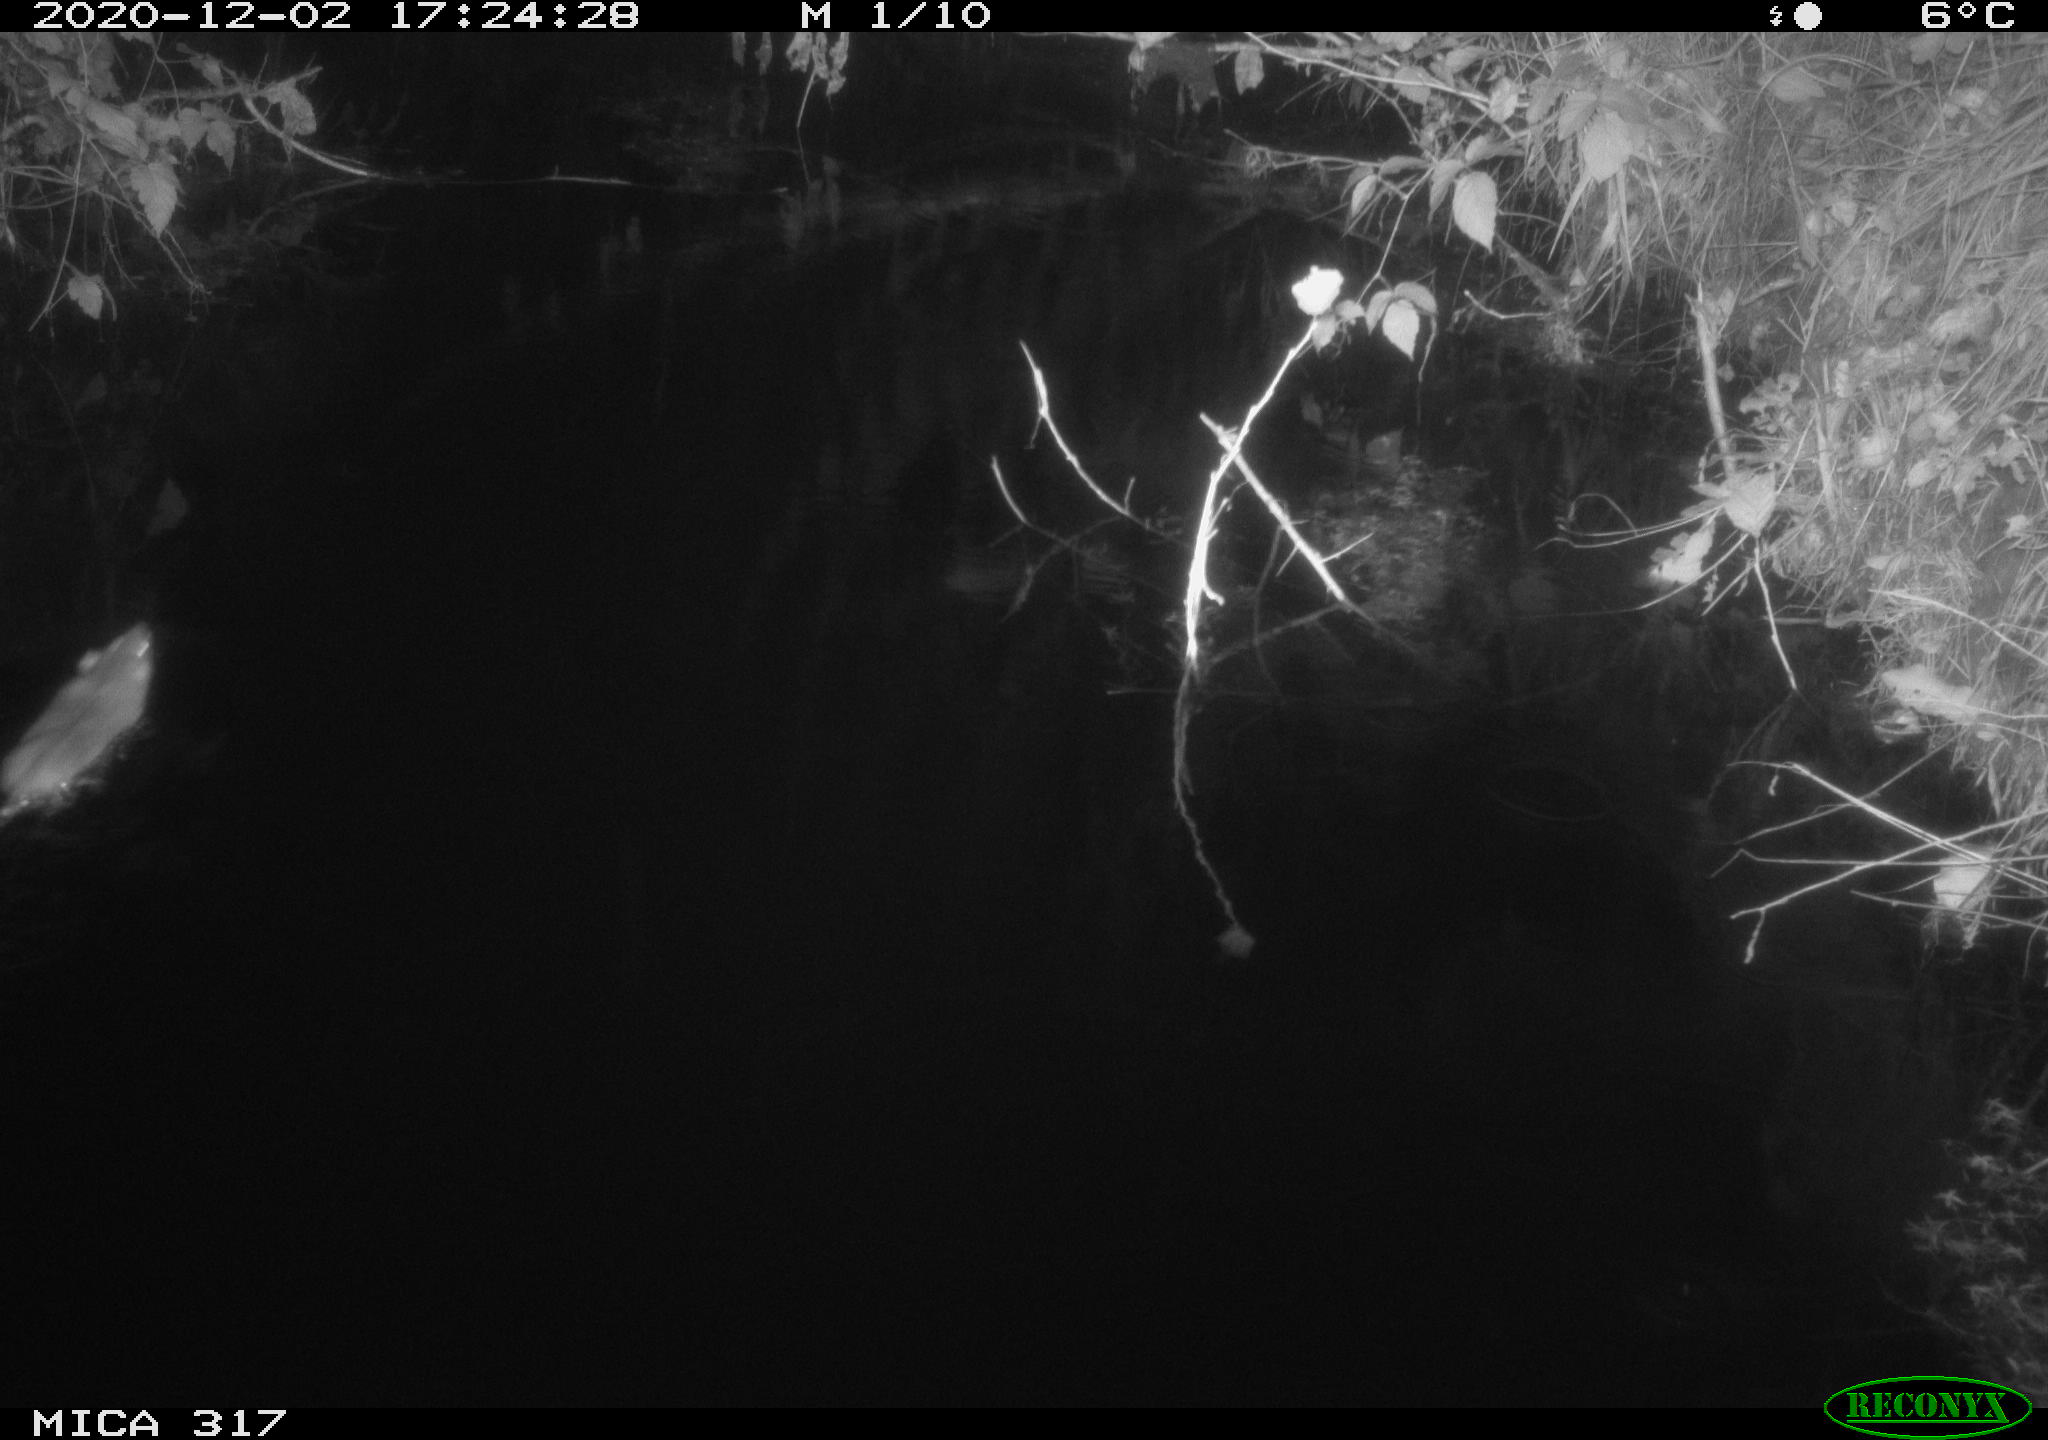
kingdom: Animalia
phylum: Chordata
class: Mammalia
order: Rodentia
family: Muridae
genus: Rattus
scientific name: Rattus norvegicus
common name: Brown rat
